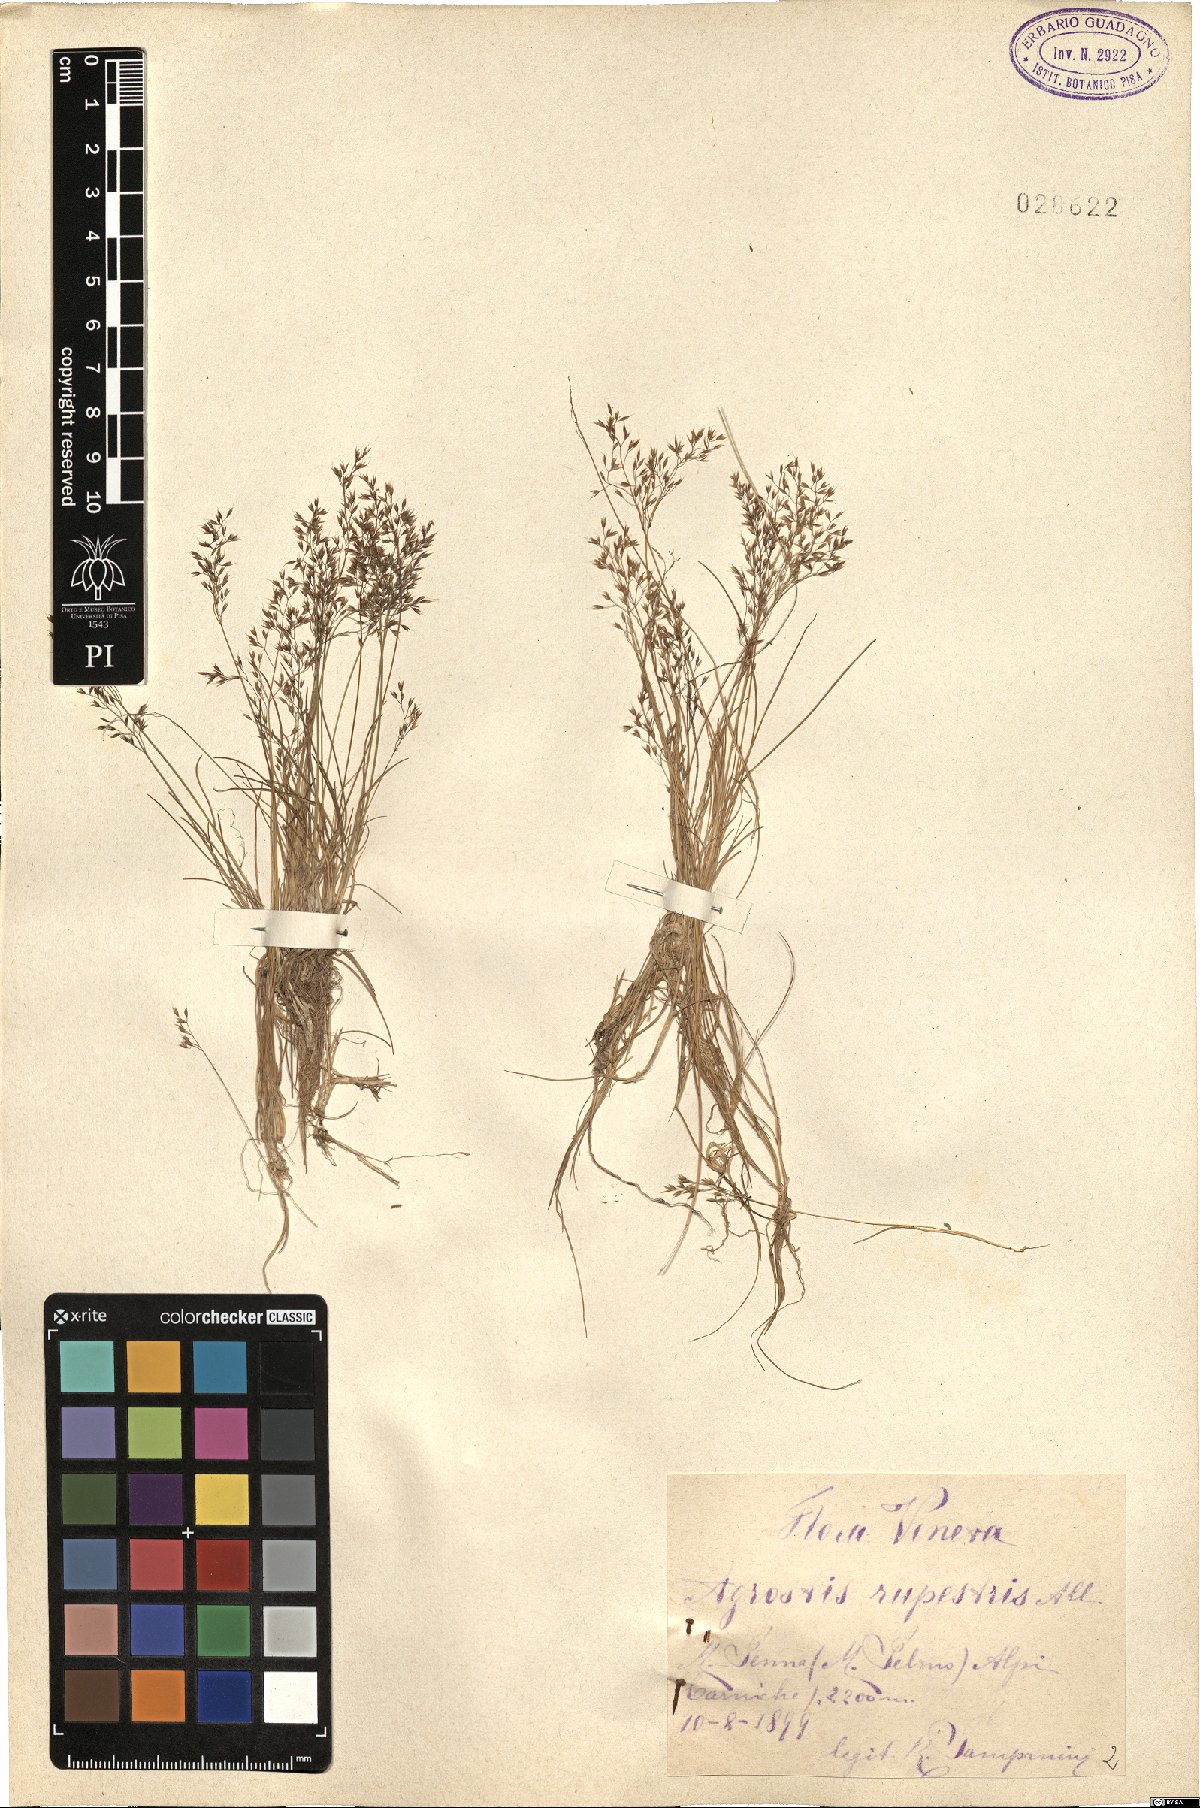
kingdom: Plantae
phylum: Tracheophyta
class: Liliopsida
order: Poales
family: Poaceae
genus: Agrostis
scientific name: Agrostis rupestris
